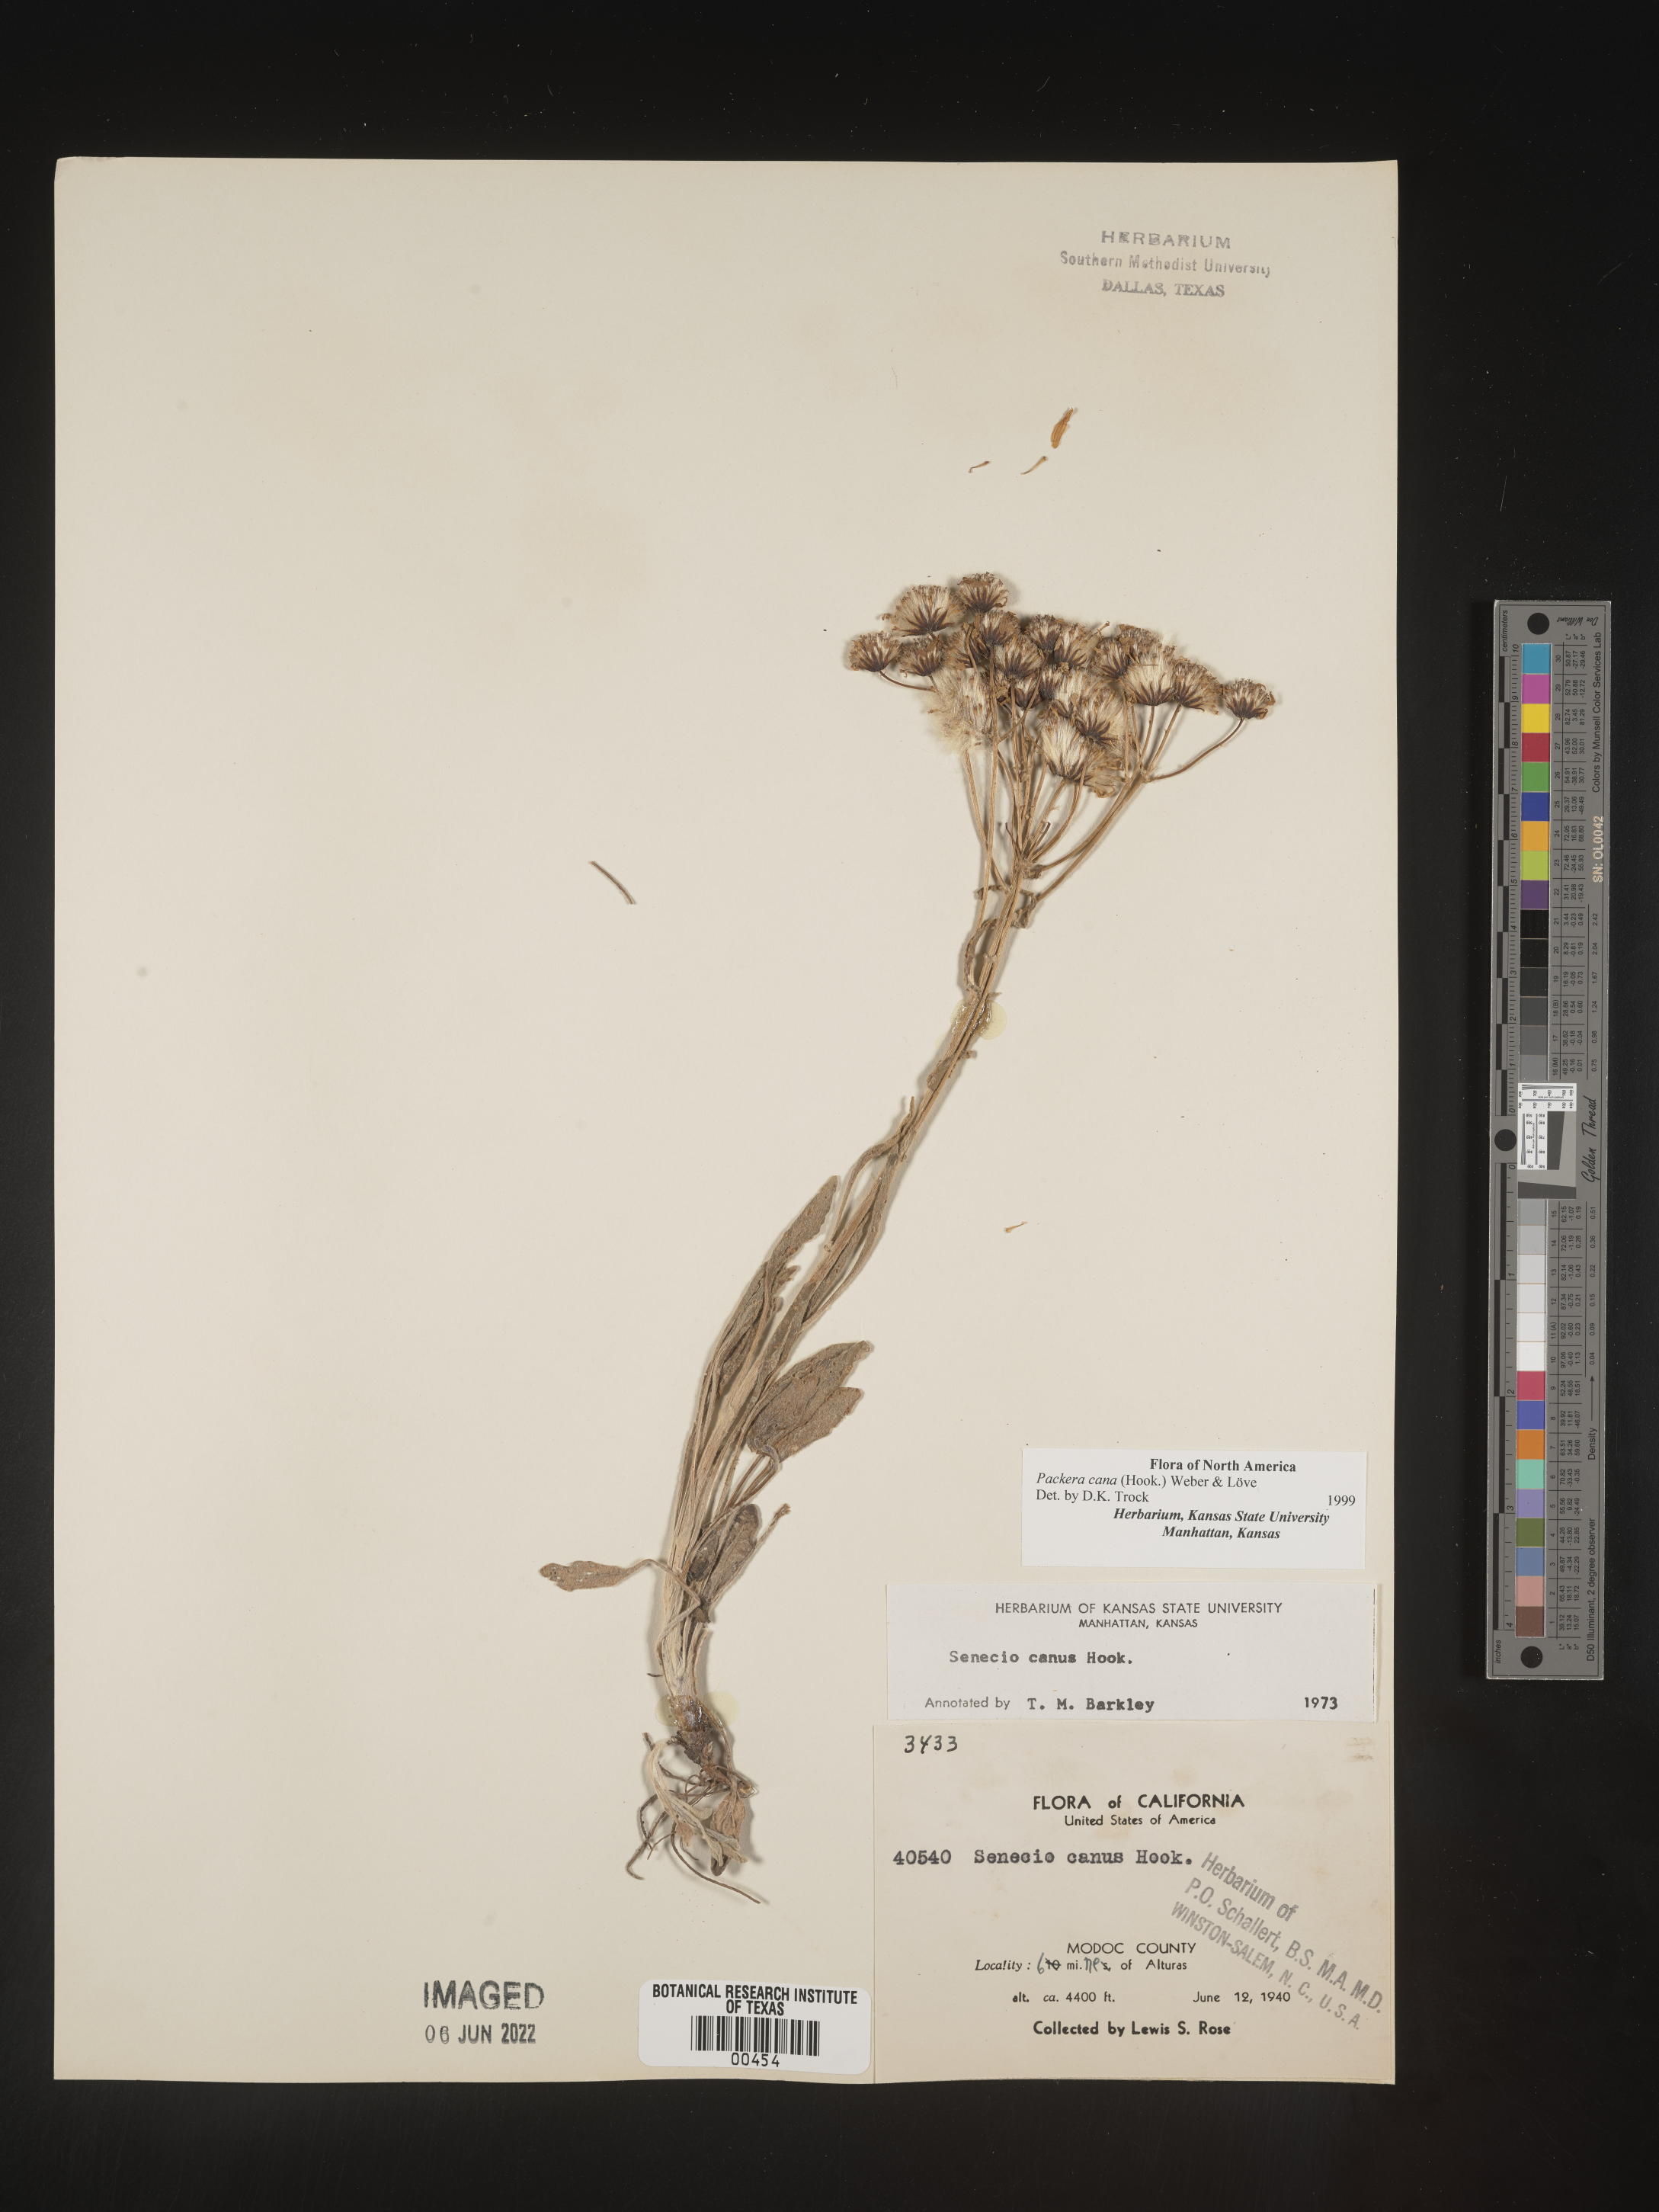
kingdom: Plantae
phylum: Tracheophyta
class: Magnoliopsida
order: Asterales
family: Asteraceae
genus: Packera
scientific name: Packera cana
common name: Woolly groundsel
